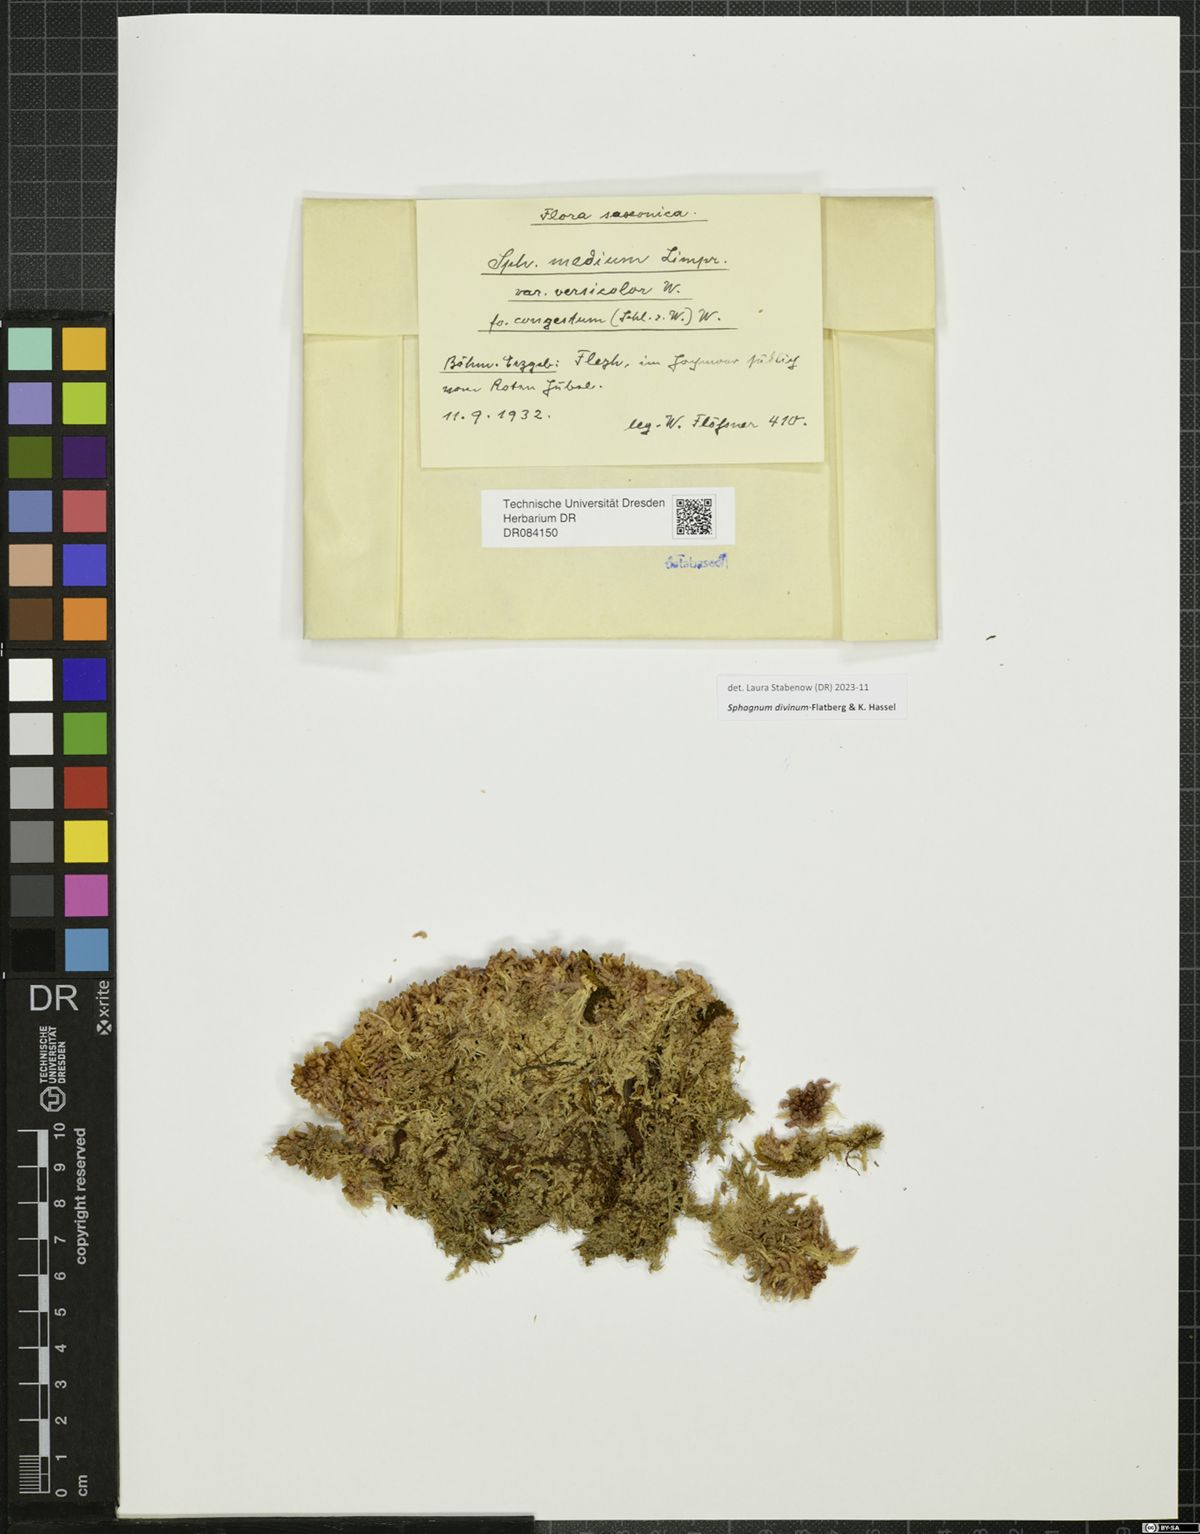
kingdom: Plantae
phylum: Bryophyta
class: Sphagnopsida
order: Sphagnales
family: Sphagnaceae
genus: Sphagnum
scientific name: Sphagnum divinum
